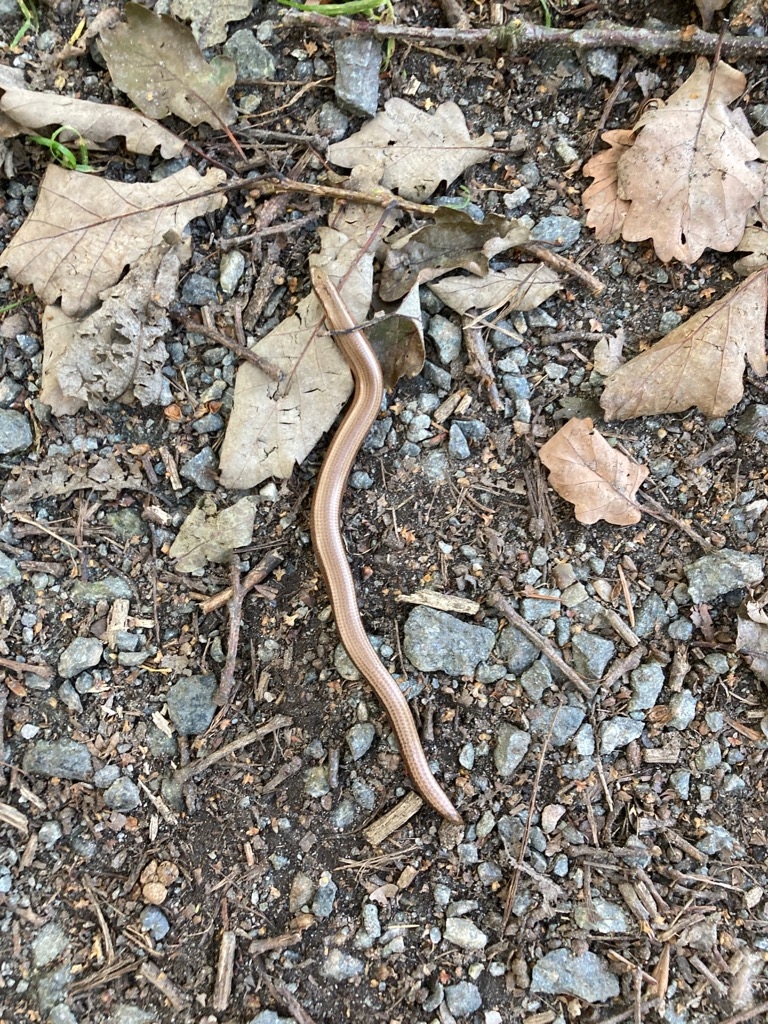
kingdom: Animalia
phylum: Chordata
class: Squamata
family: Anguidae
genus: Anguis
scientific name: Anguis fragilis
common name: Stålorm
